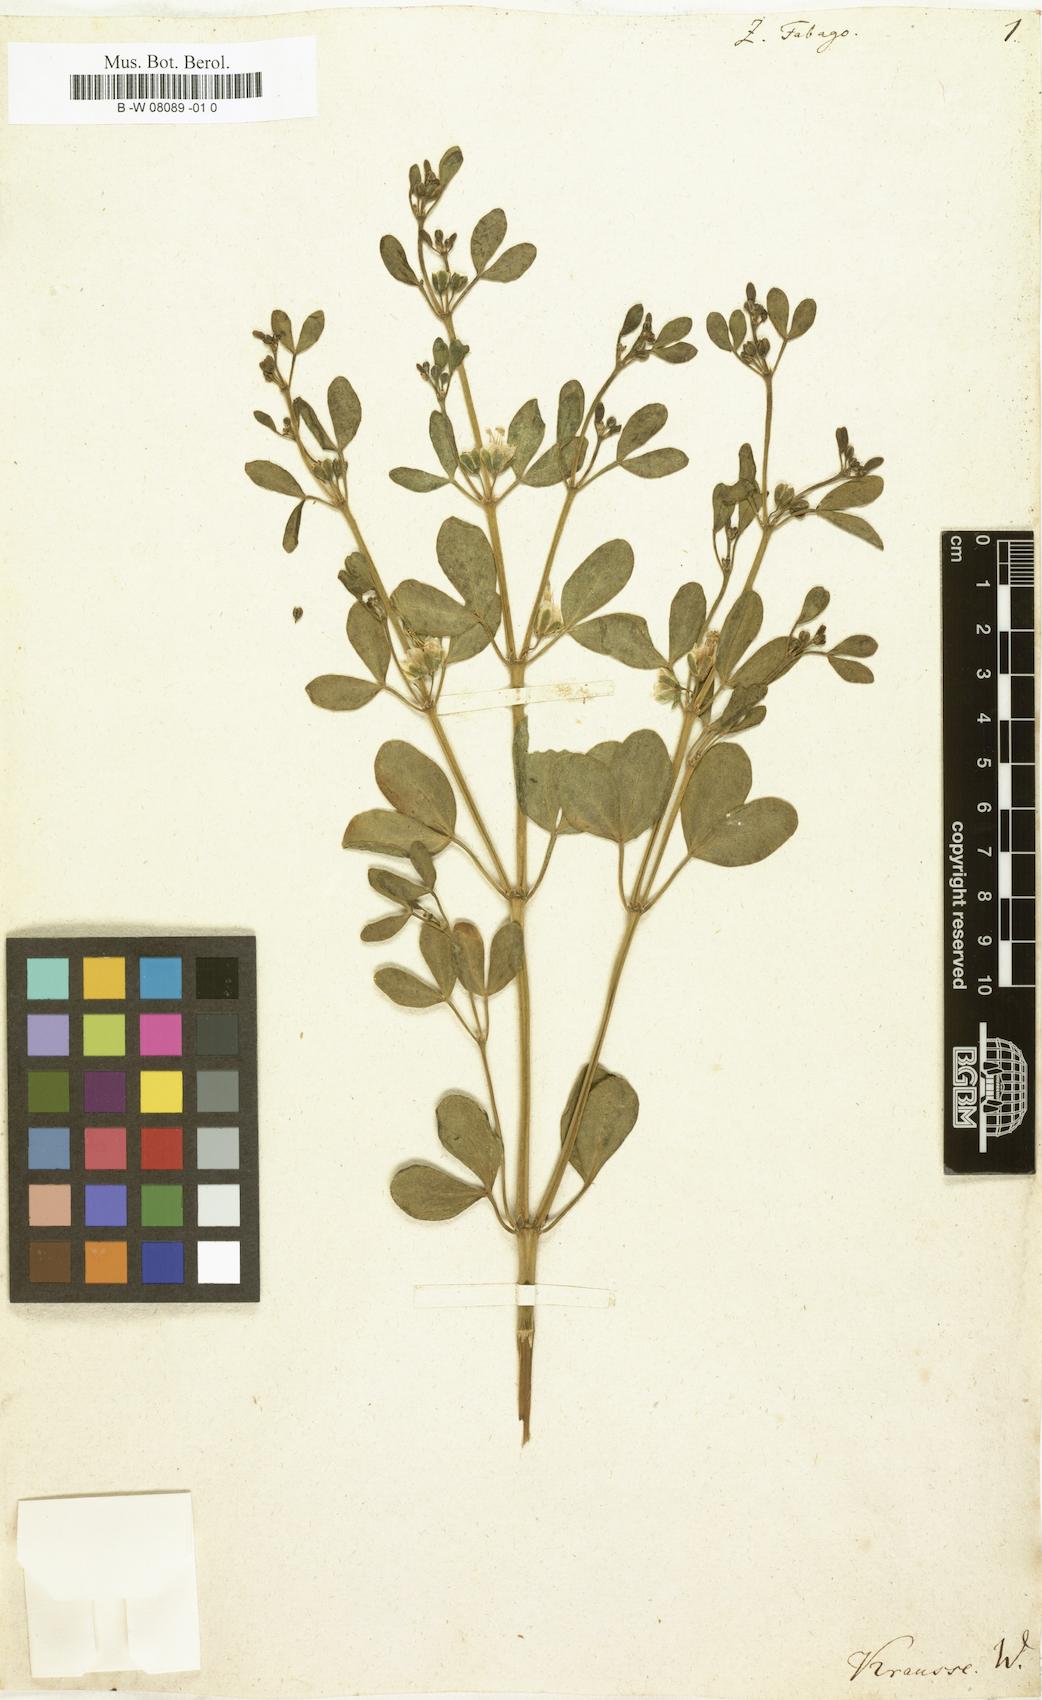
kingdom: Plantae
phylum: Tracheophyta
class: Magnoliopsida
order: Zygophyllales
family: Zygophyllaceae
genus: Zygophyllum
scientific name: Zygophyllum fabago
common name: Syrian beancaper
